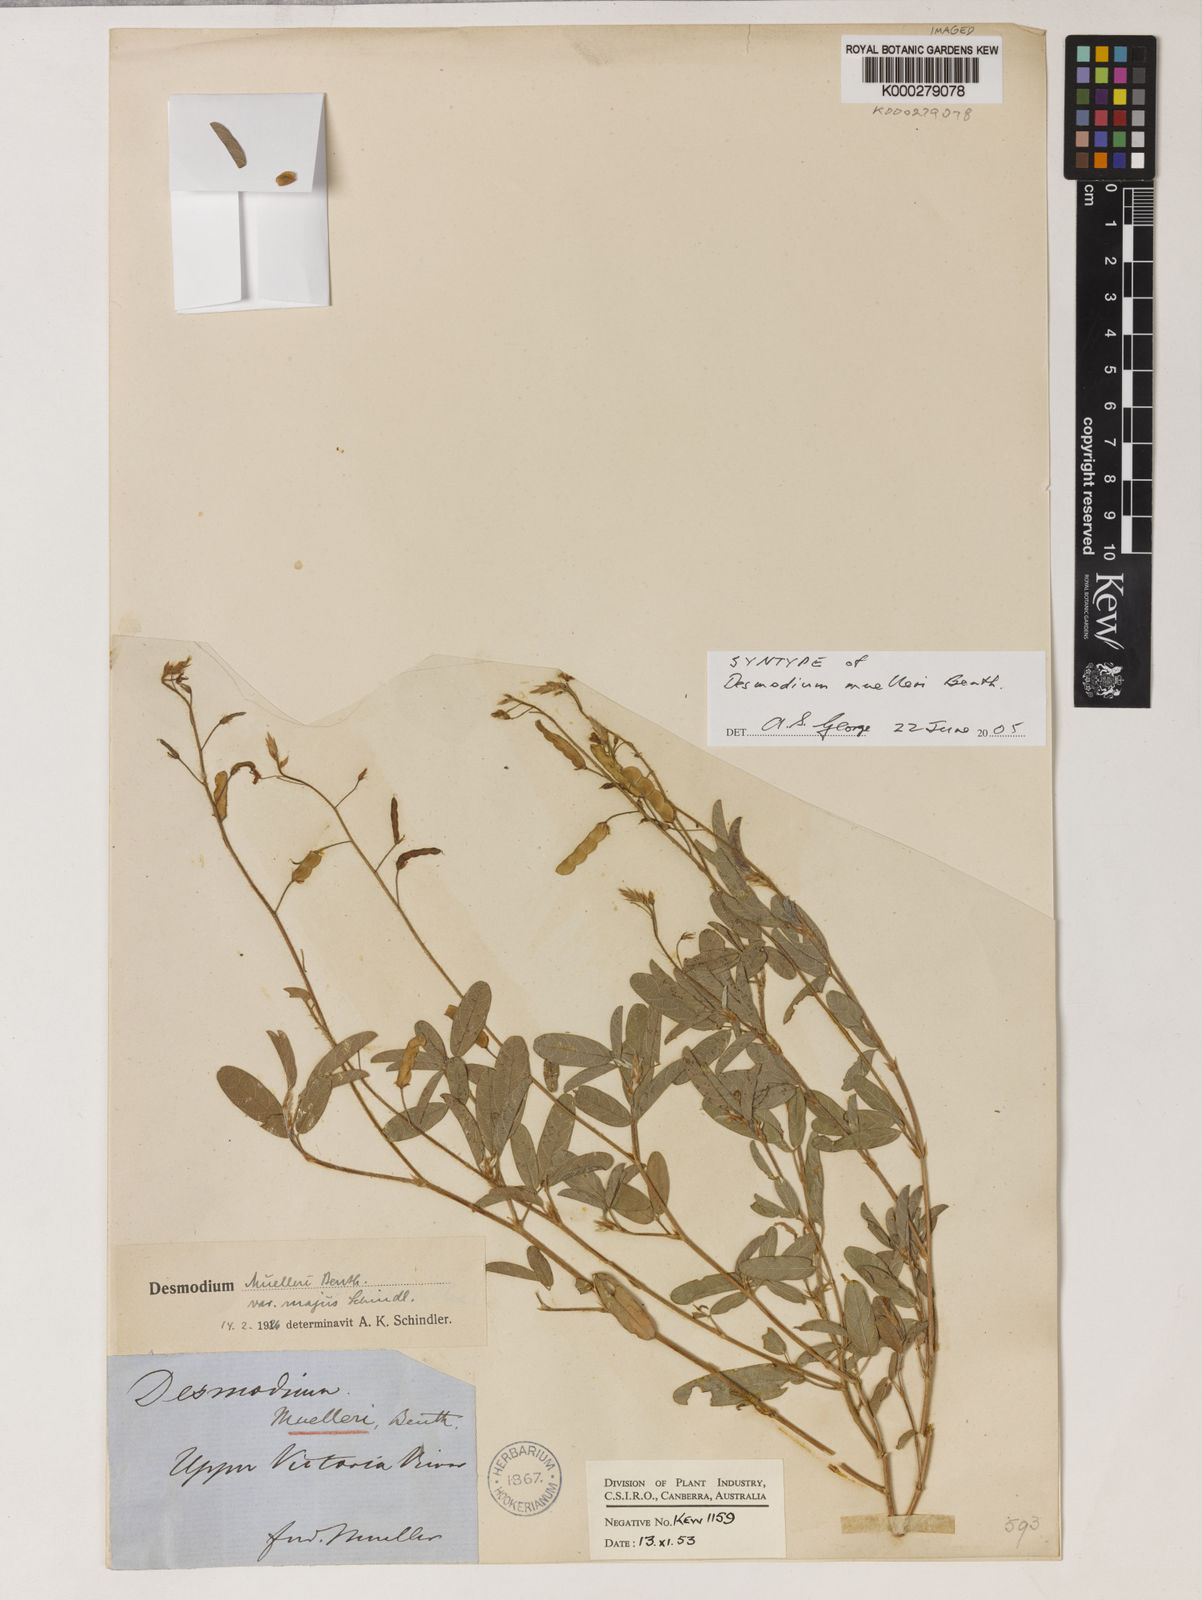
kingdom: Plantae
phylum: Tracheophyta
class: Magnoliopsida
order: Fabales
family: Fabaceae
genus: Grona
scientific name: Grona muelleri
